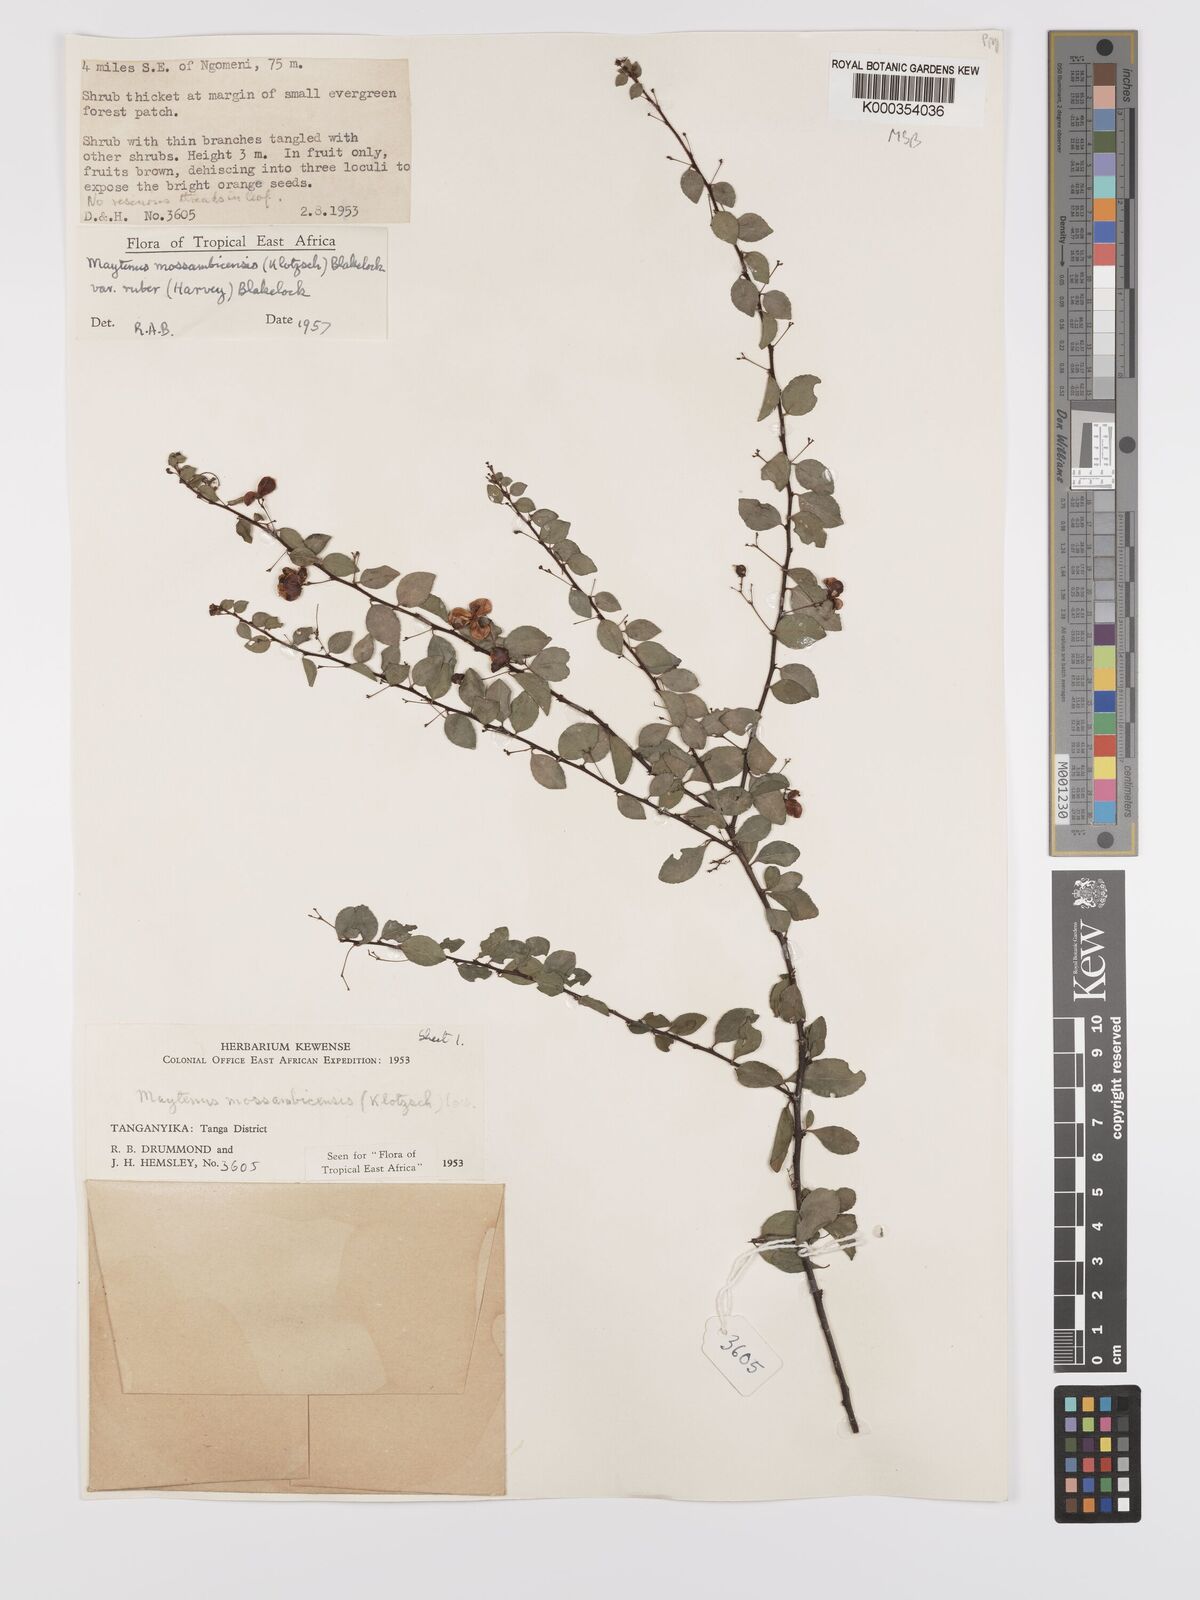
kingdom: Plantae
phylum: Tracheophyta
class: Magnoliopsida
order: Celastrales
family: Celastraceae
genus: Gymnosporia
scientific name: Gymnosporia mossambicensis
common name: Black forest spike-thorn
